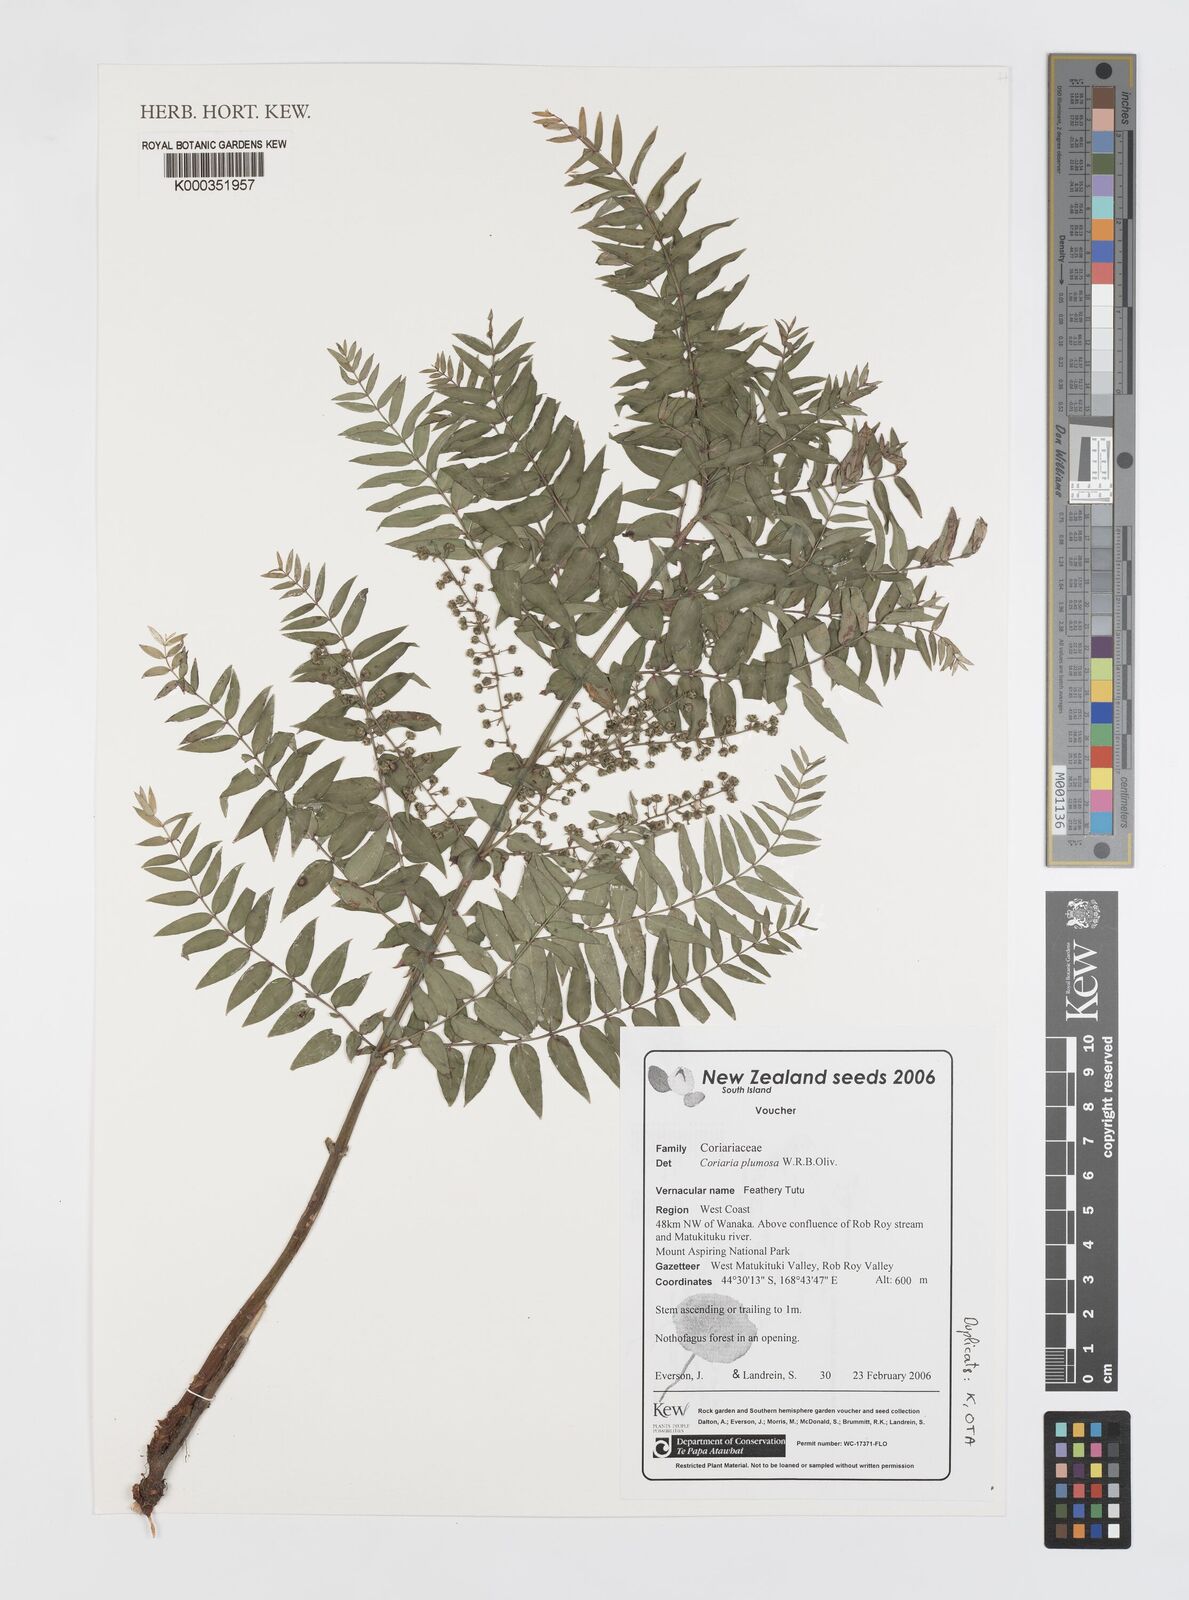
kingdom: Plantae
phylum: Tracheophyta
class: Magnoliopsida
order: Cucurbitales
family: Coriariaceae
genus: Coriaria
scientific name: Coriaria plumosa
